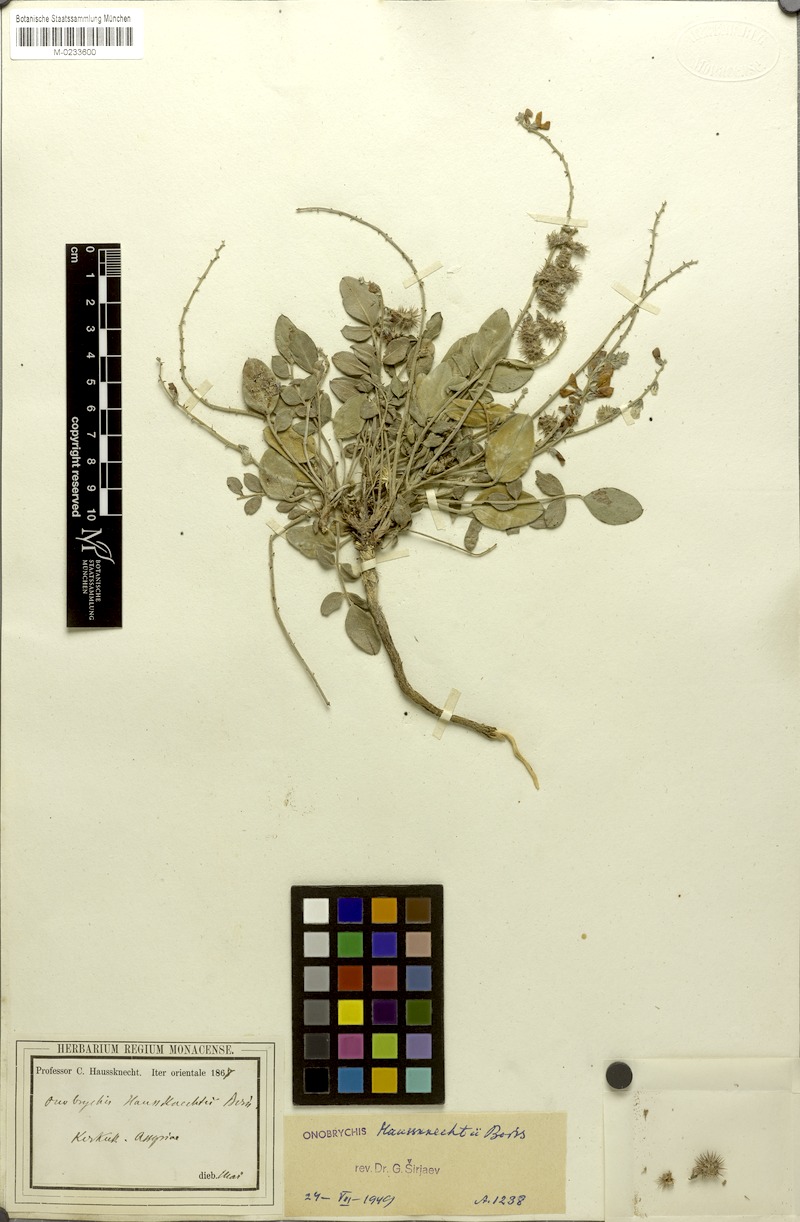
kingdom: Plantae
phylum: Tracheophyta
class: Magnoliopsida
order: Fabales
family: Fabaceae
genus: Onobrychis
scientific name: Onobrychis haussknechtii
